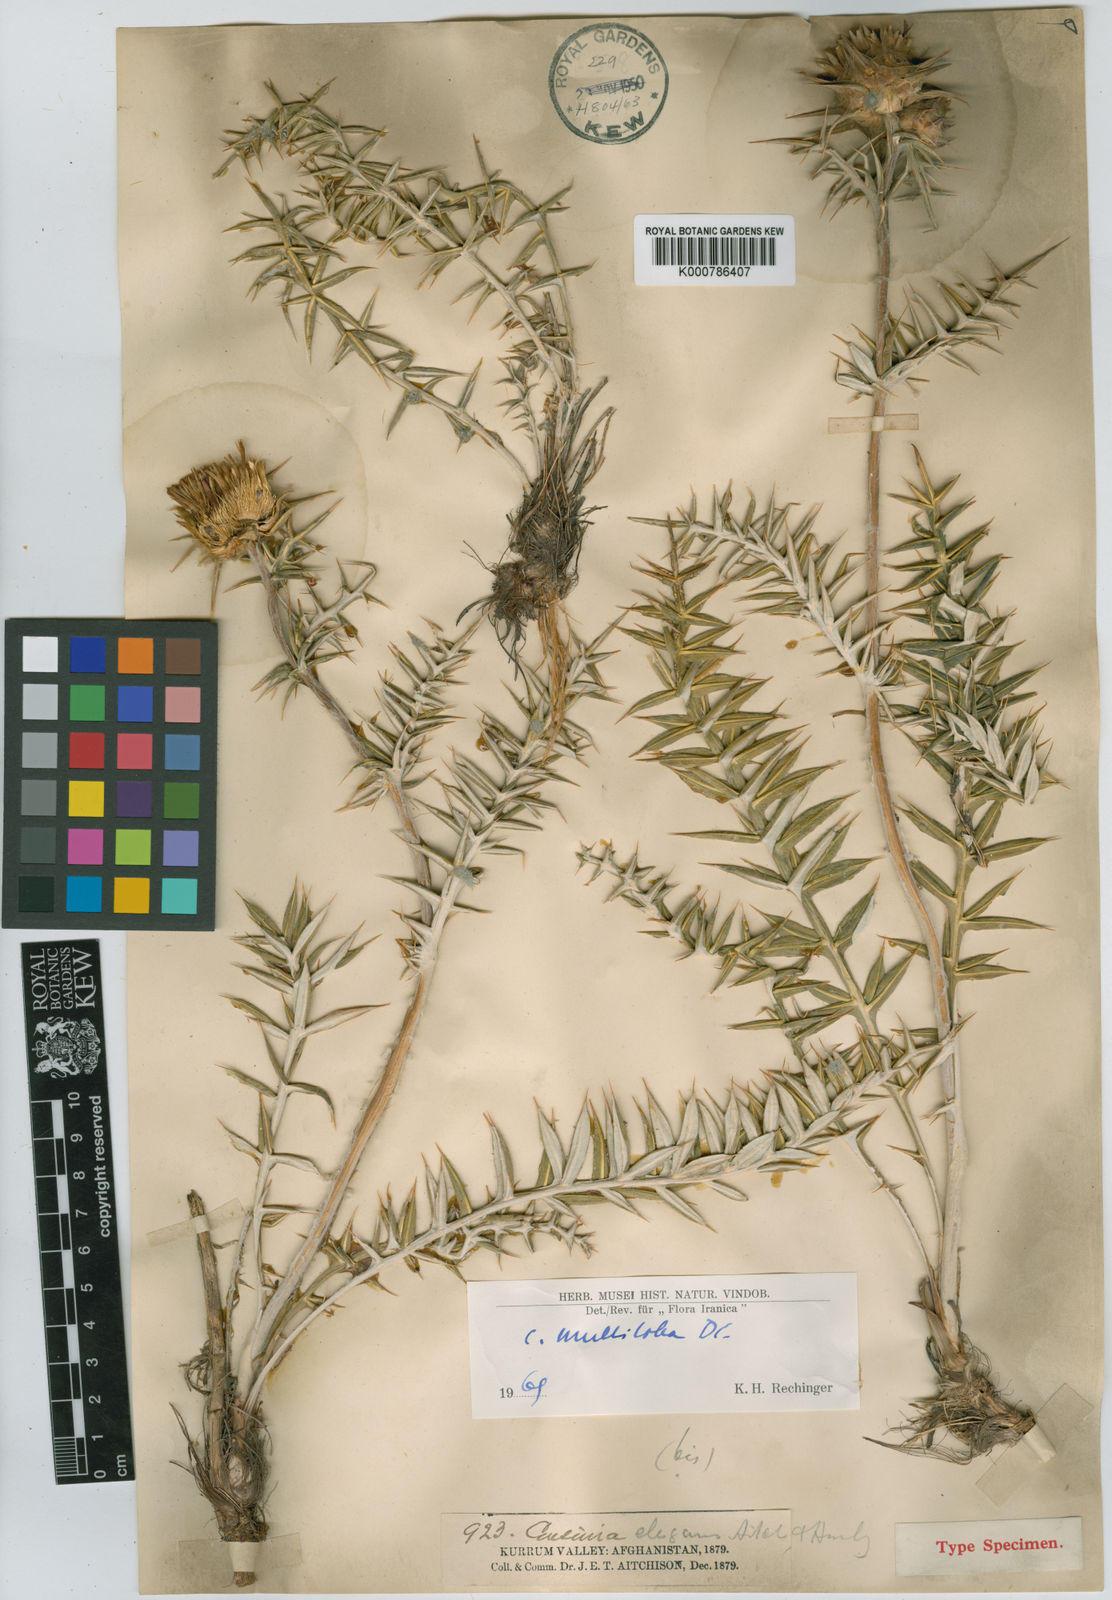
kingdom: Plantae
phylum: Tracheophyta
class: Magnoliopsida
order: Asterales
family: Asteraceae
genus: Cousinia
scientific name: Cousinia multiloba
